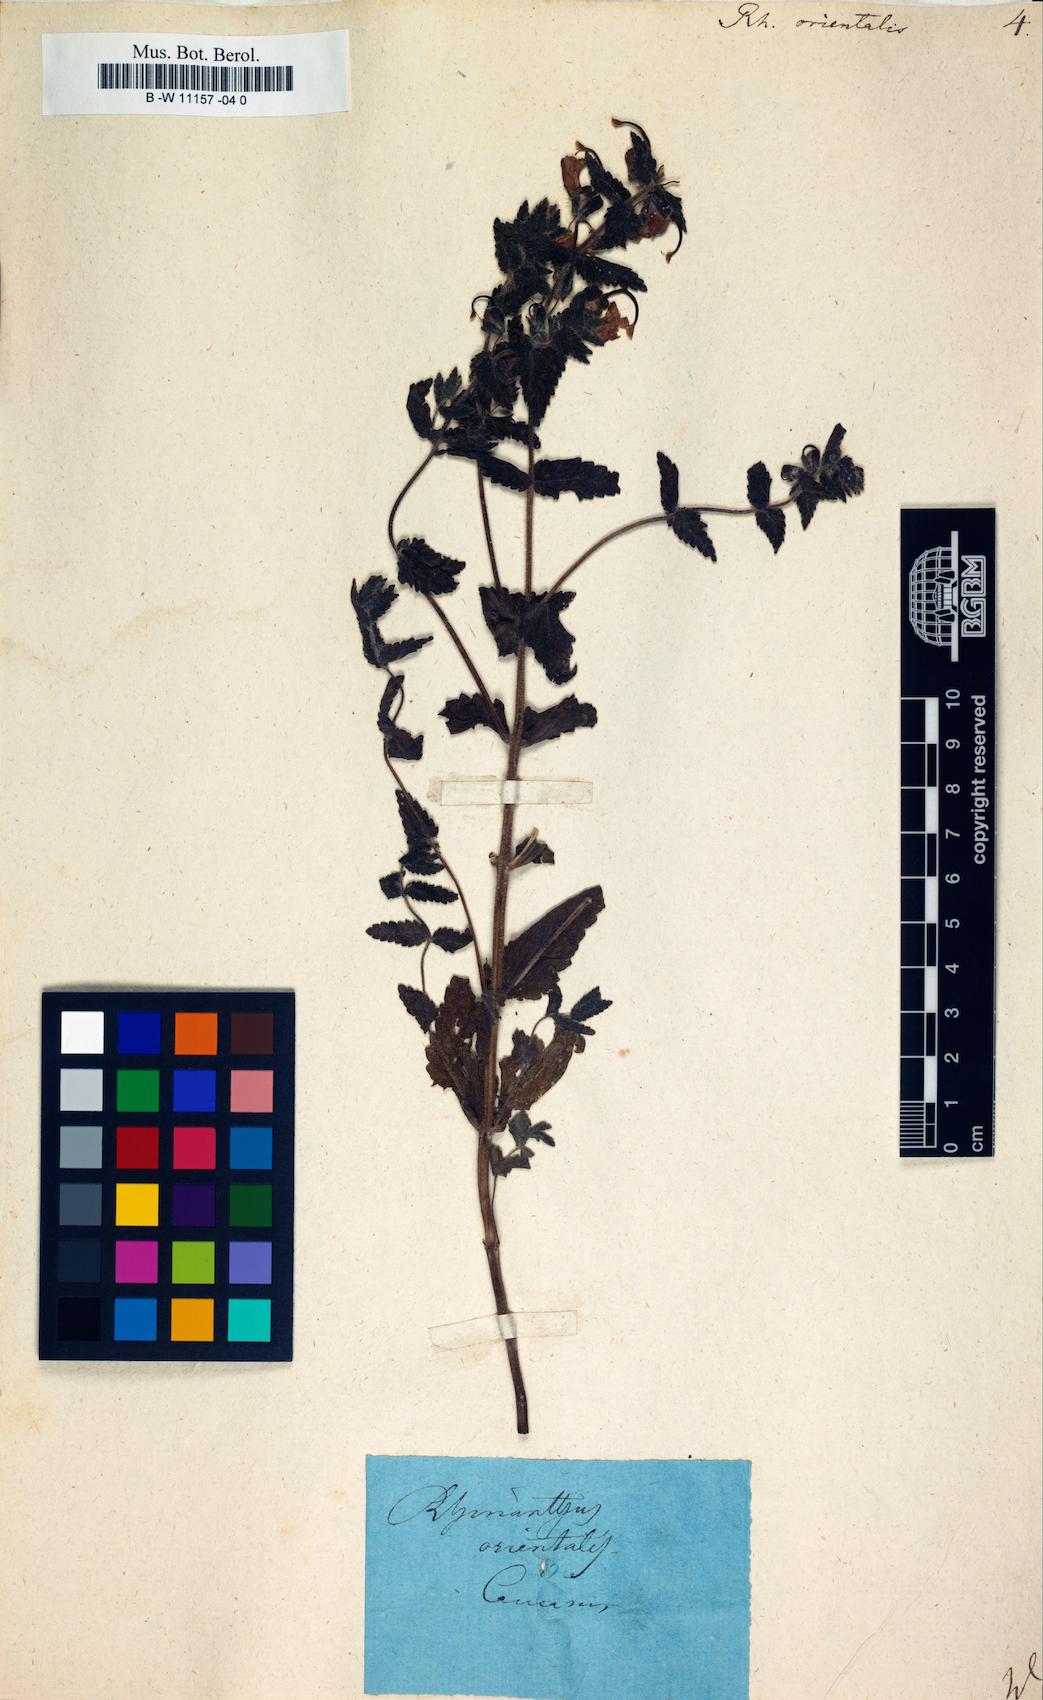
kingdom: Plantae
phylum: Tracheophyta
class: Magnoliopsida
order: Lamiales
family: Orobanchaceae
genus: Rhynchocorys
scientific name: Rhynchocorys
